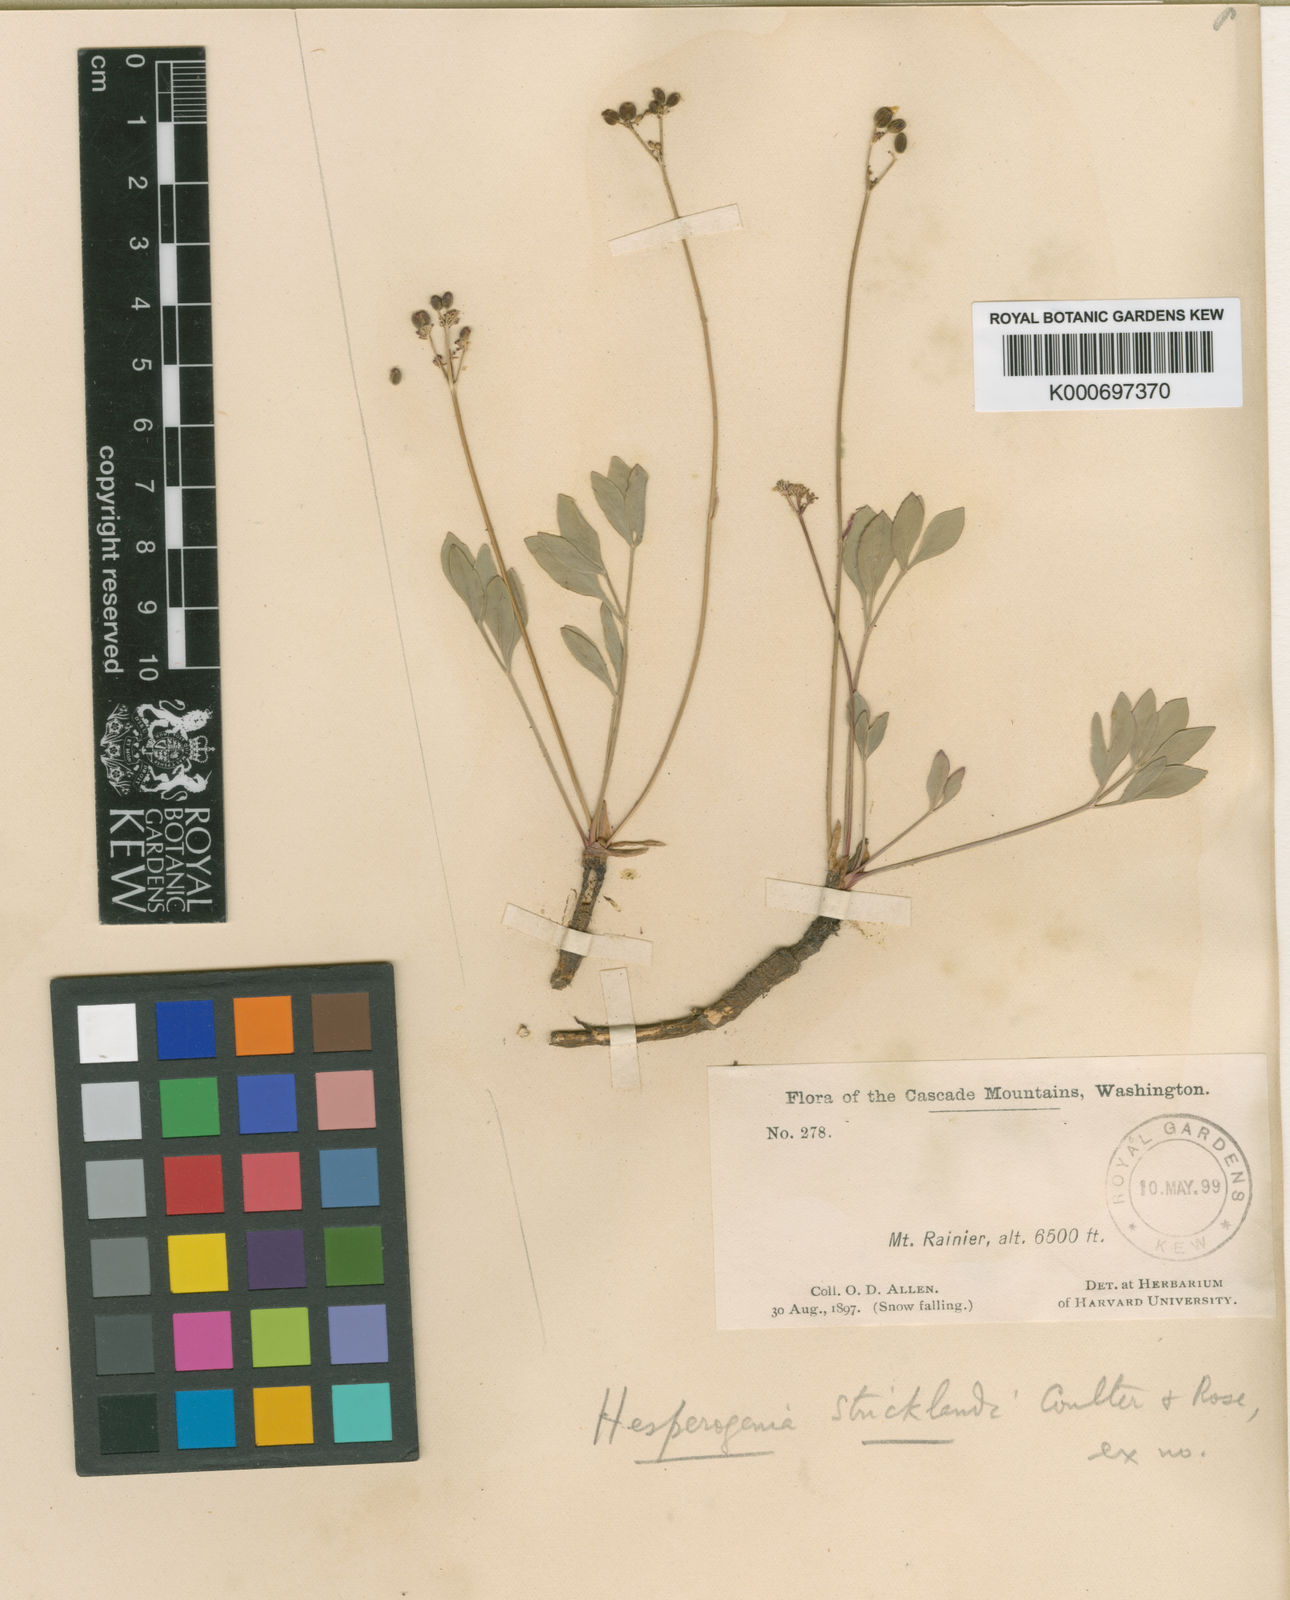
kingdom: Plantae
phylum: Tracheophyta
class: Magnoliopsida
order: Apiales
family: Apiaceae
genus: Tauschia
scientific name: Tauschia stricklandii
